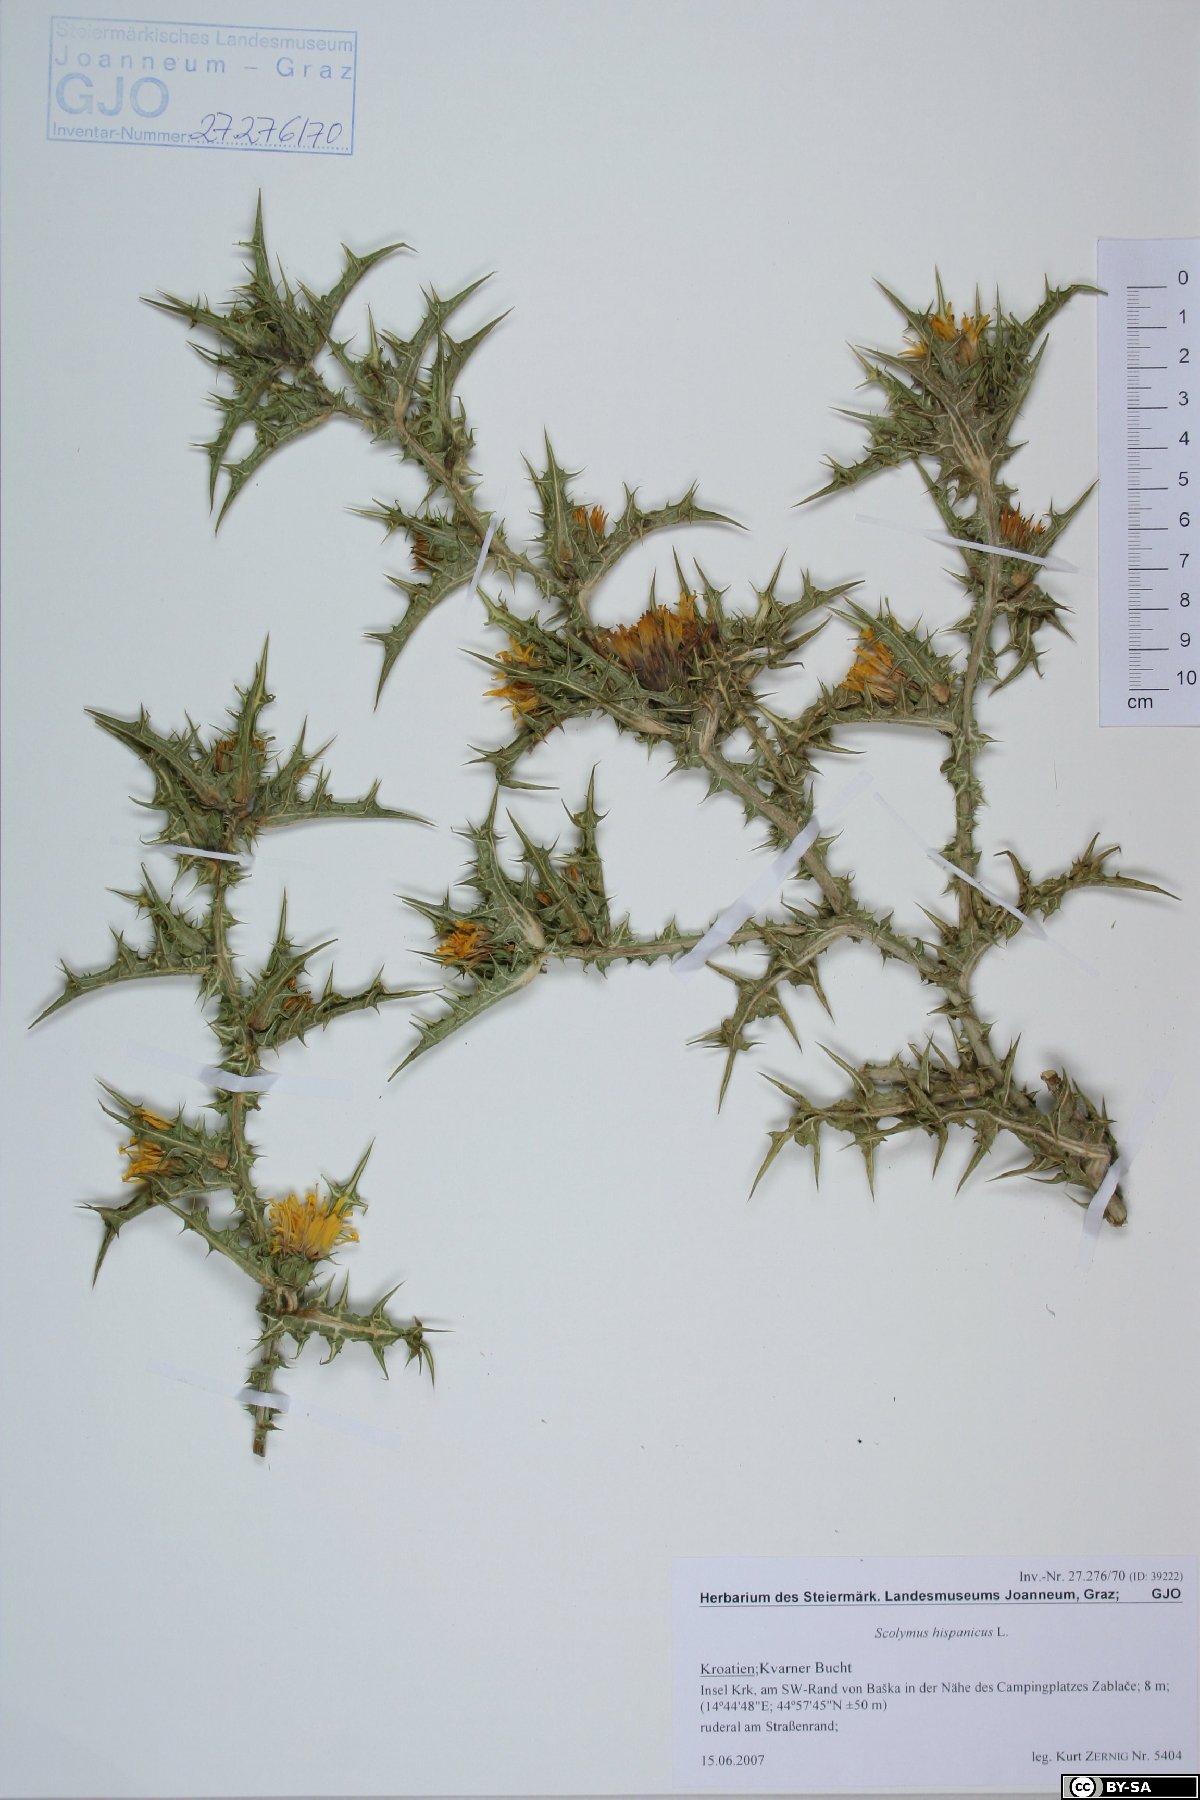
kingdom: Plantae
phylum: Tracheophyta
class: Magnoliopsida
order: Asterales
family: Asteraceae
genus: Scolymus
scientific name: Scolymus hispanicus
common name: Golden thistle
